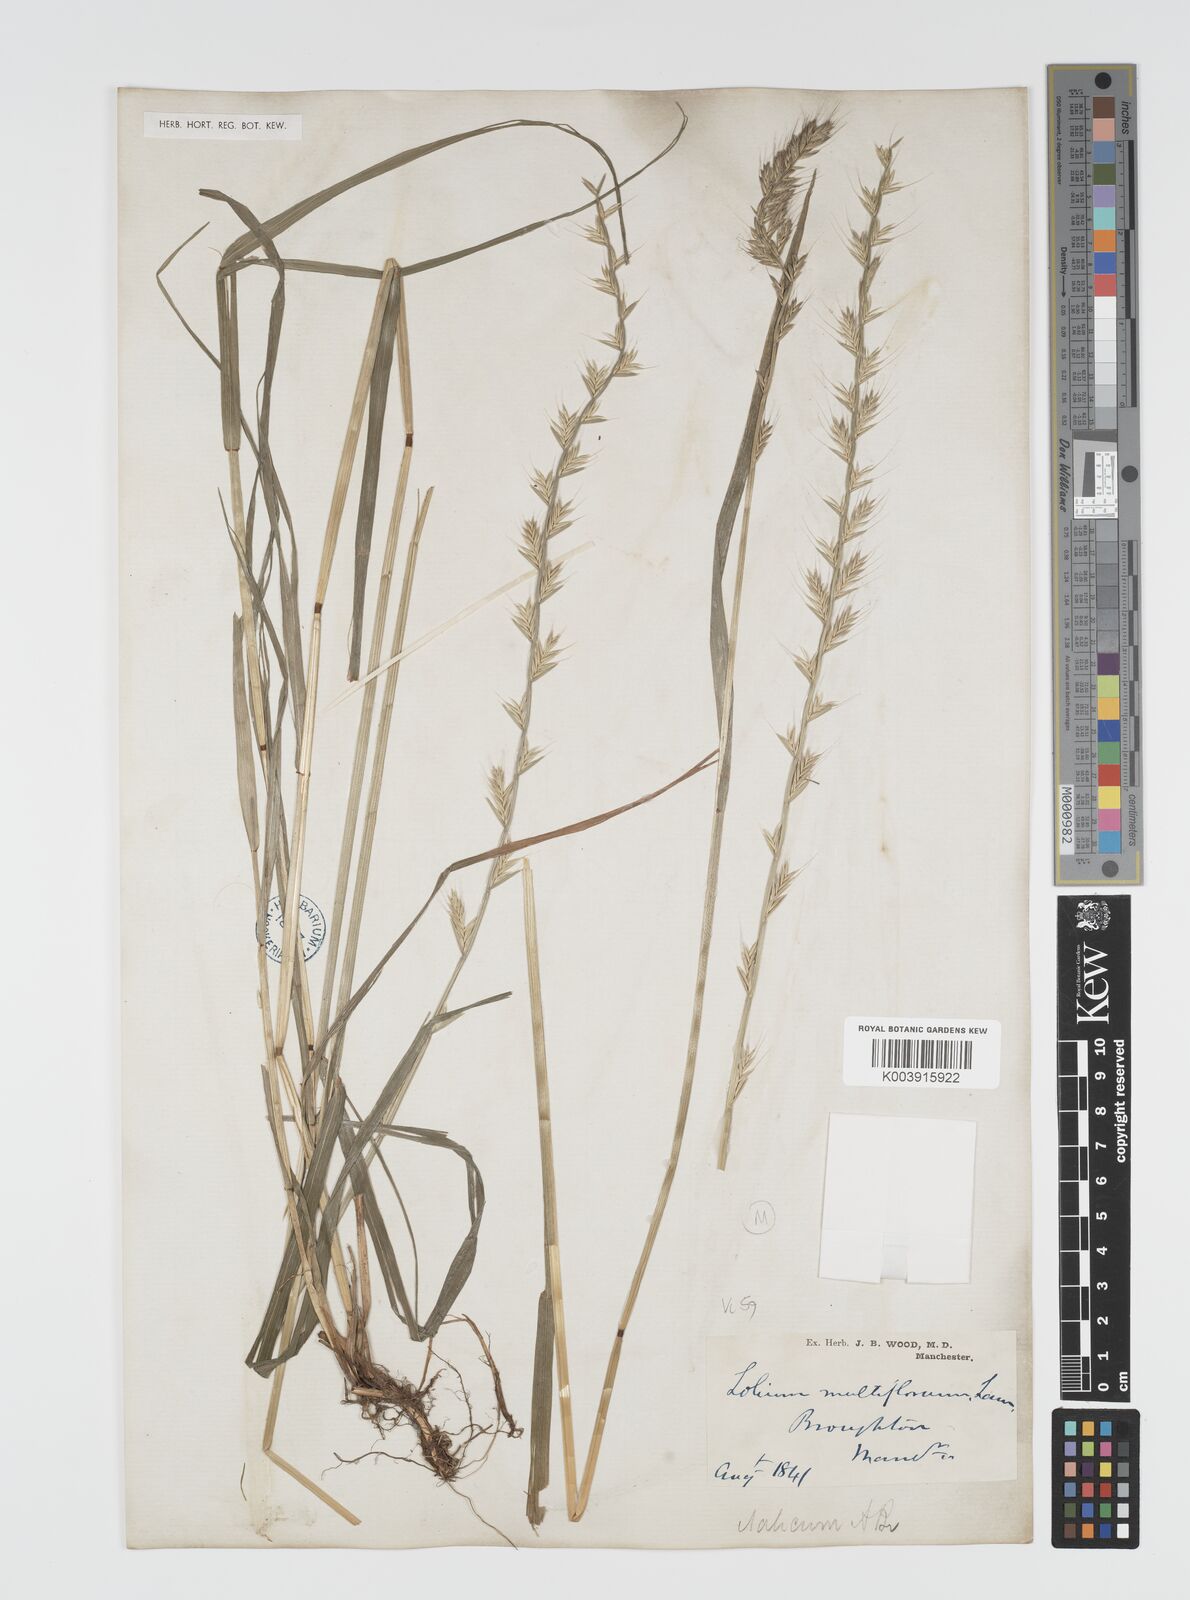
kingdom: Plantae
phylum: Tracheophyta
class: Liliopsida
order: Poales
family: Poaceae
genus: Lolium
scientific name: Lolium multiflorum
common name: Annual ryegrass
